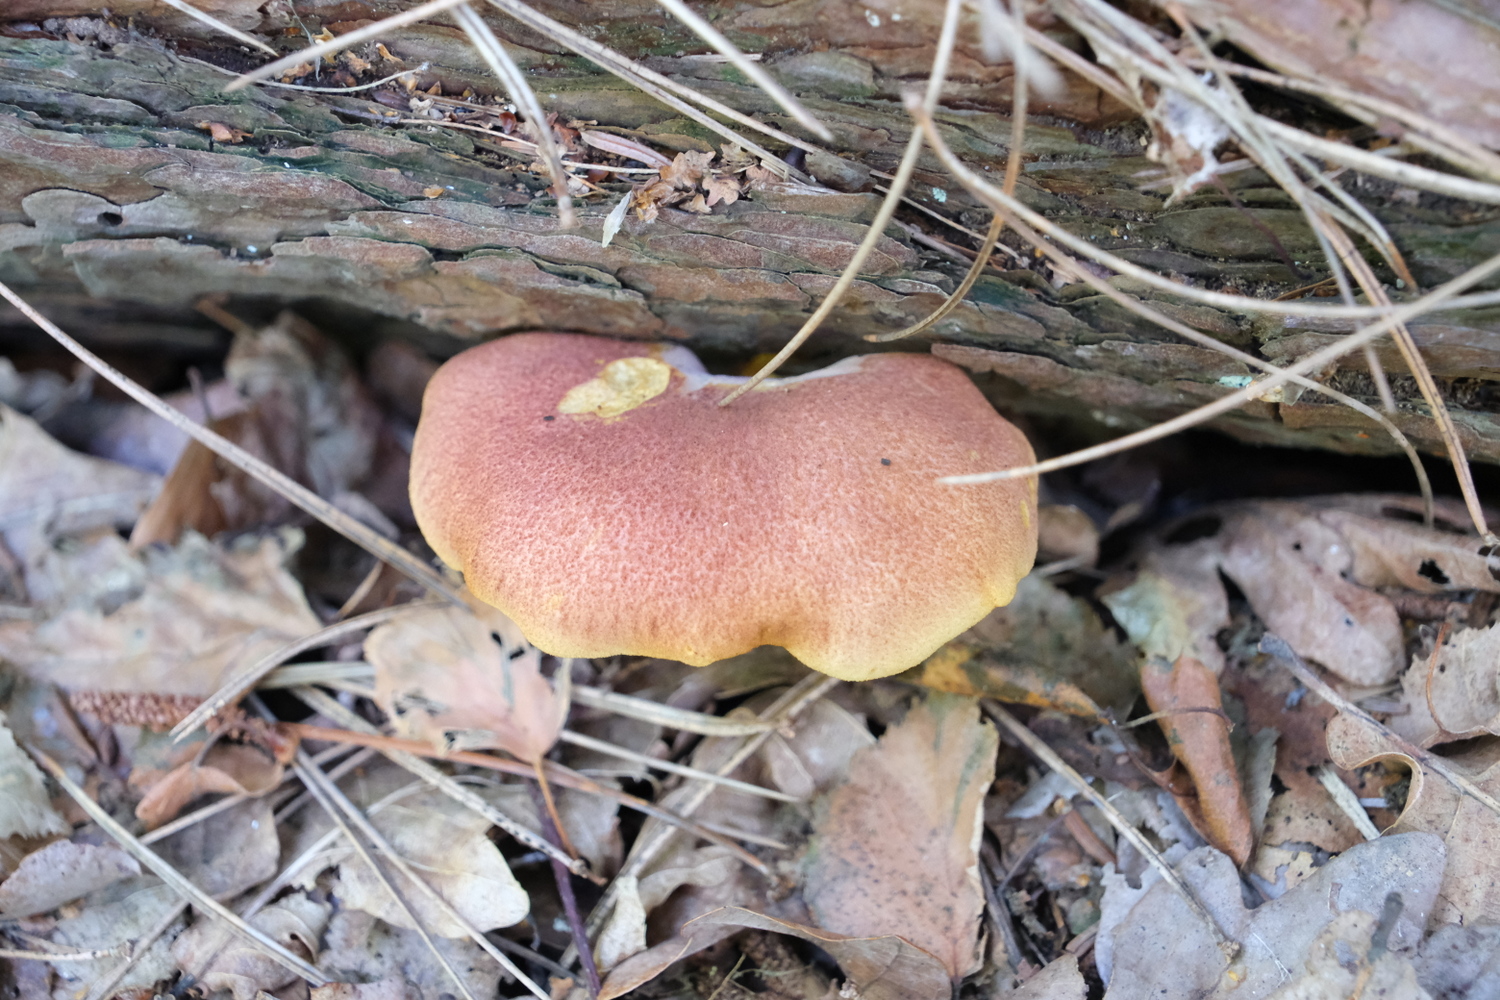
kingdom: Fungi
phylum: Basidiomycota
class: Agaricomycetes
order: Agaricales
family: Tricholomataceae
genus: Tricholomopsis
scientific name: Tricholomopsis rutilans
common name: purpur-væbnerhat
